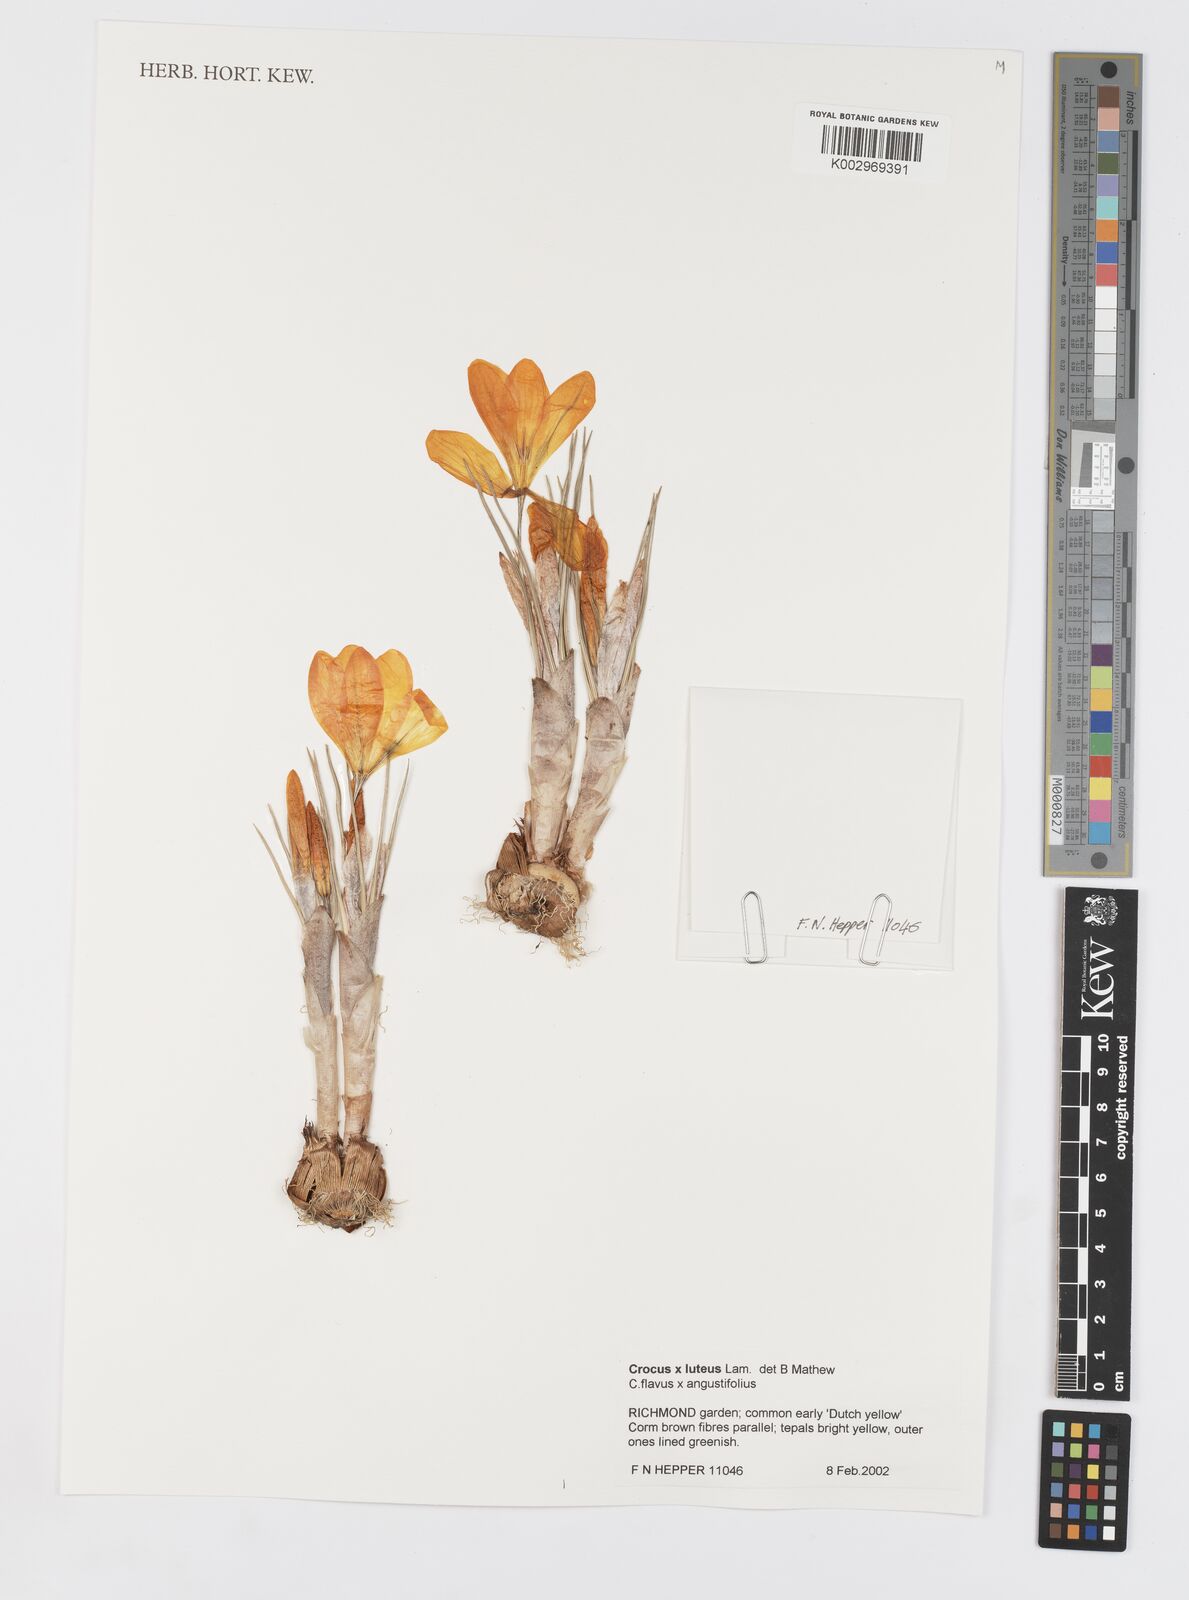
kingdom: Plantae
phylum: Tracheophyta
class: Liliopsida
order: Asparagales
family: Iridaceae
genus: Crocus
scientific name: Crocus luteus
